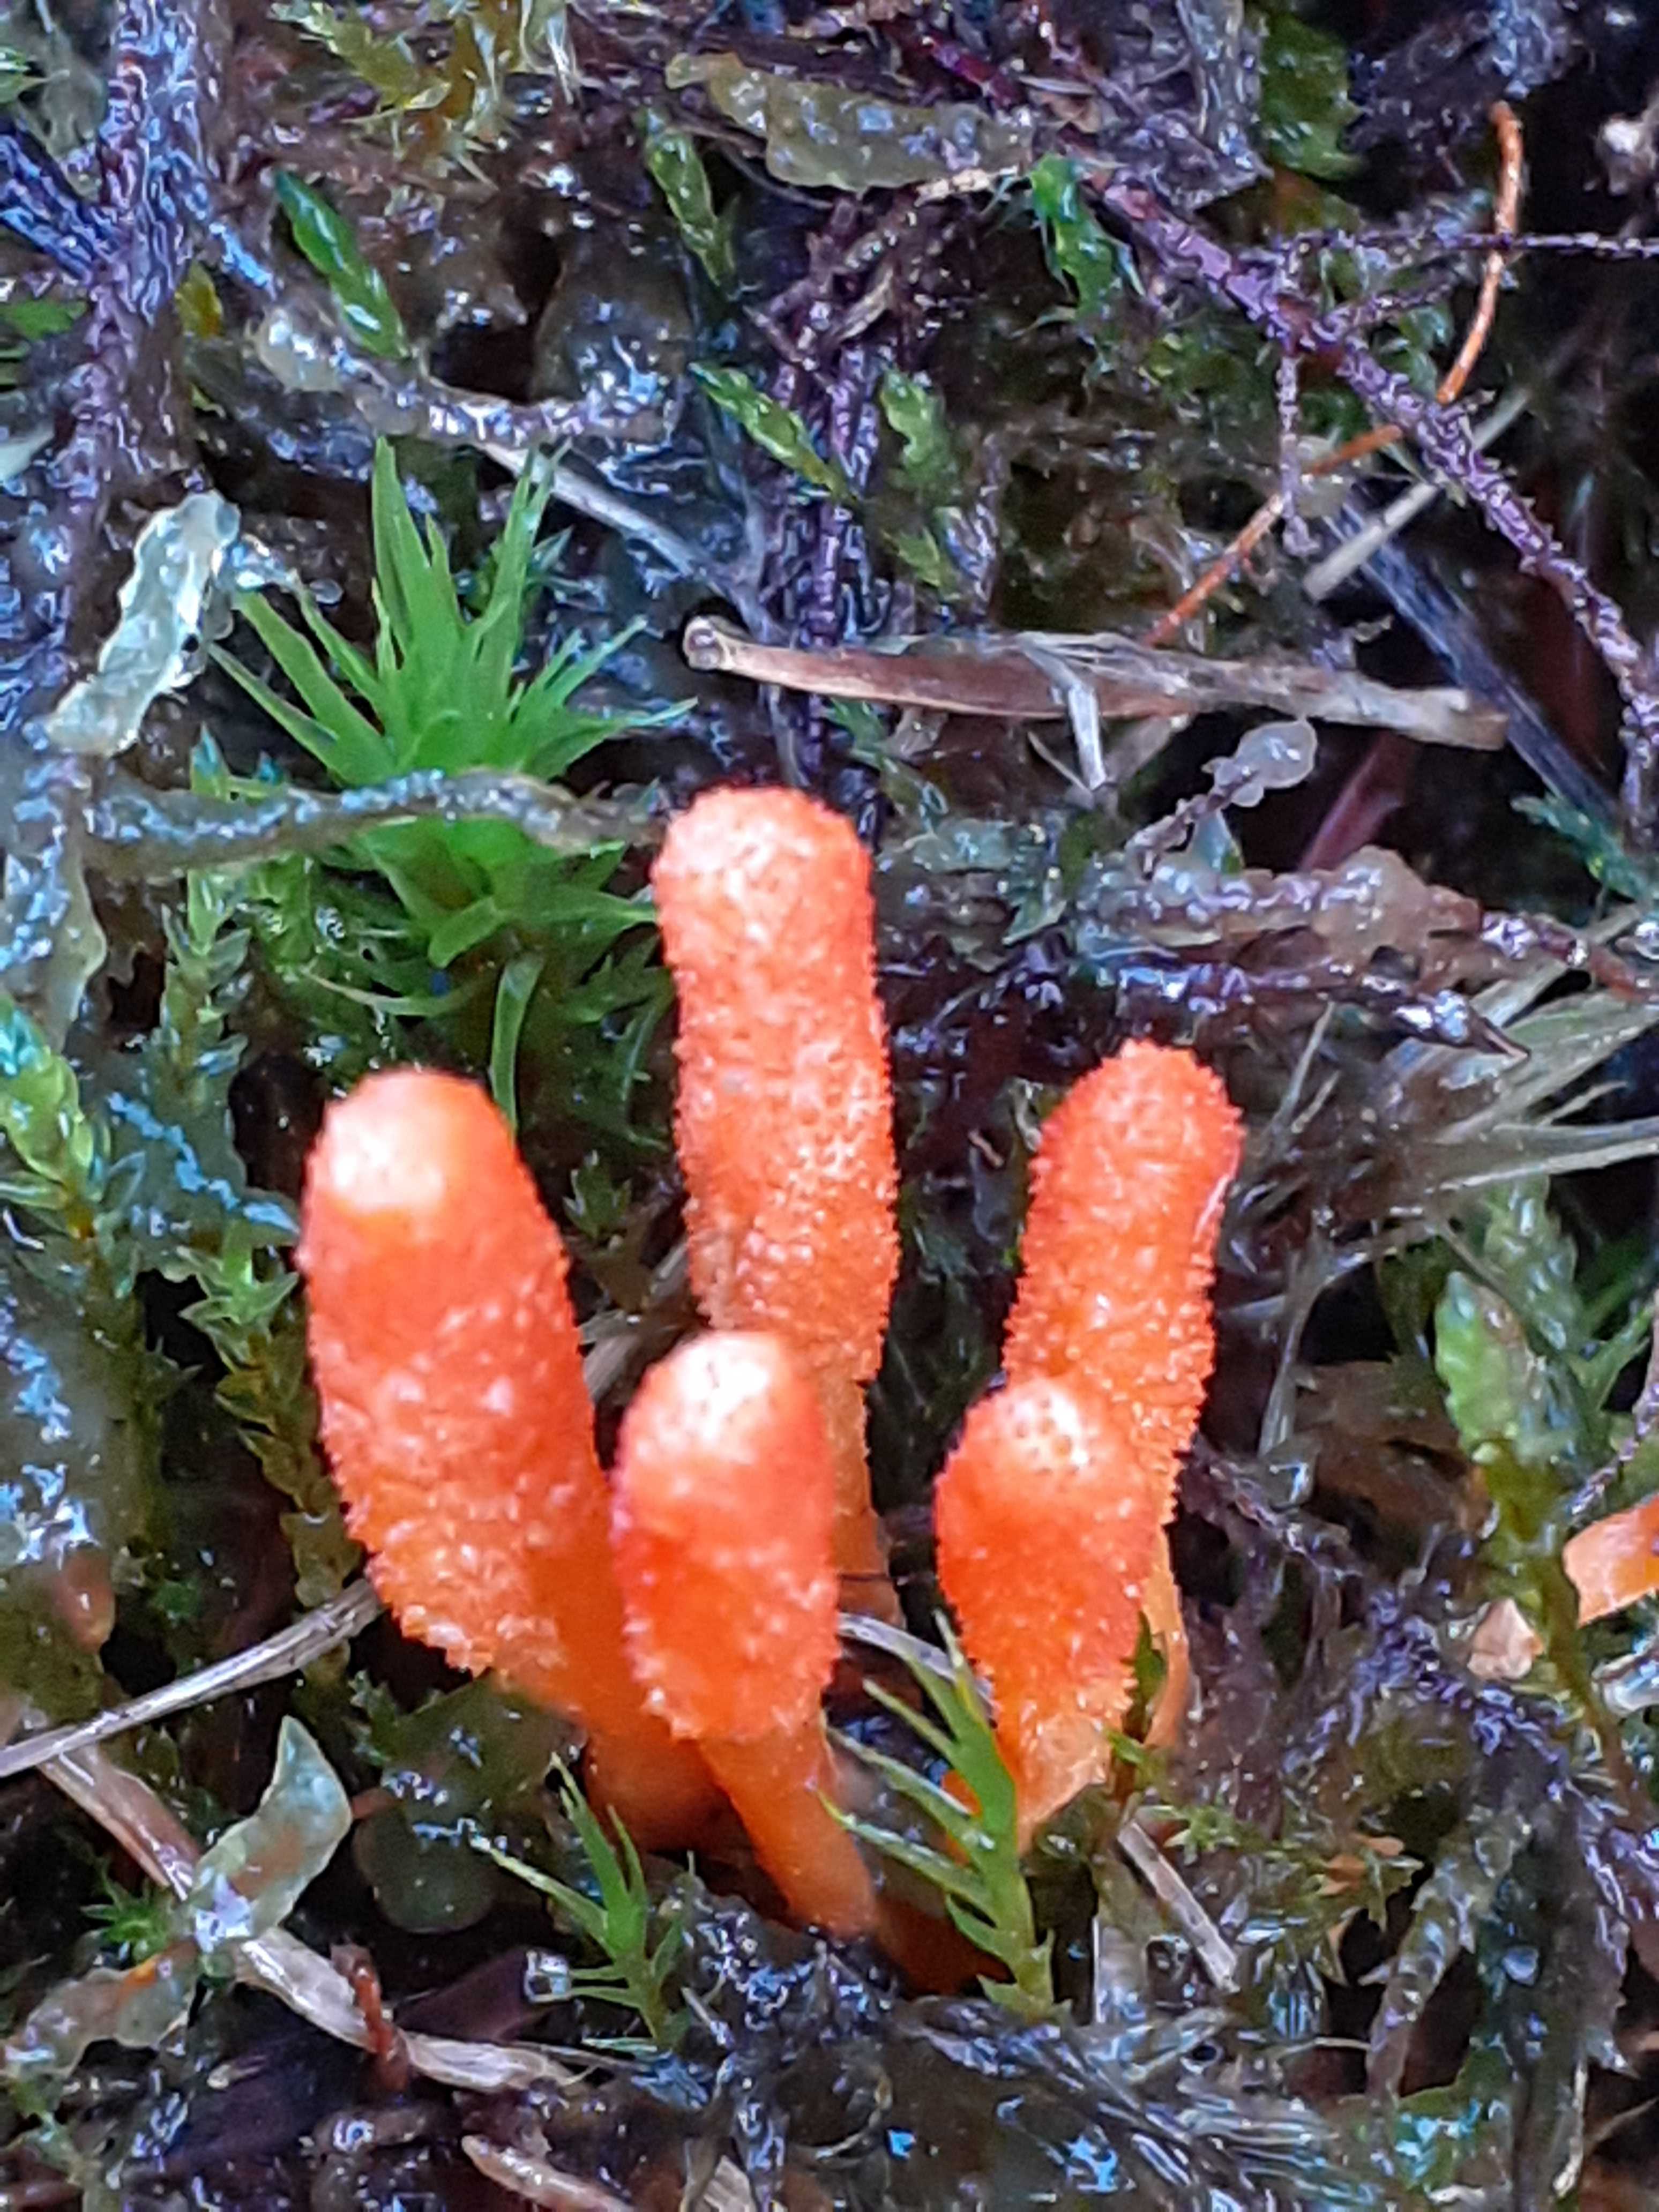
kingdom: Fungi
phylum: Ascomycota
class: Sordariomycetes
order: Hypocreales
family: Cordycipitaceae
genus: Cordyceps
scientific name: Cordyceps militaris
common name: puppe-snyltekølle
